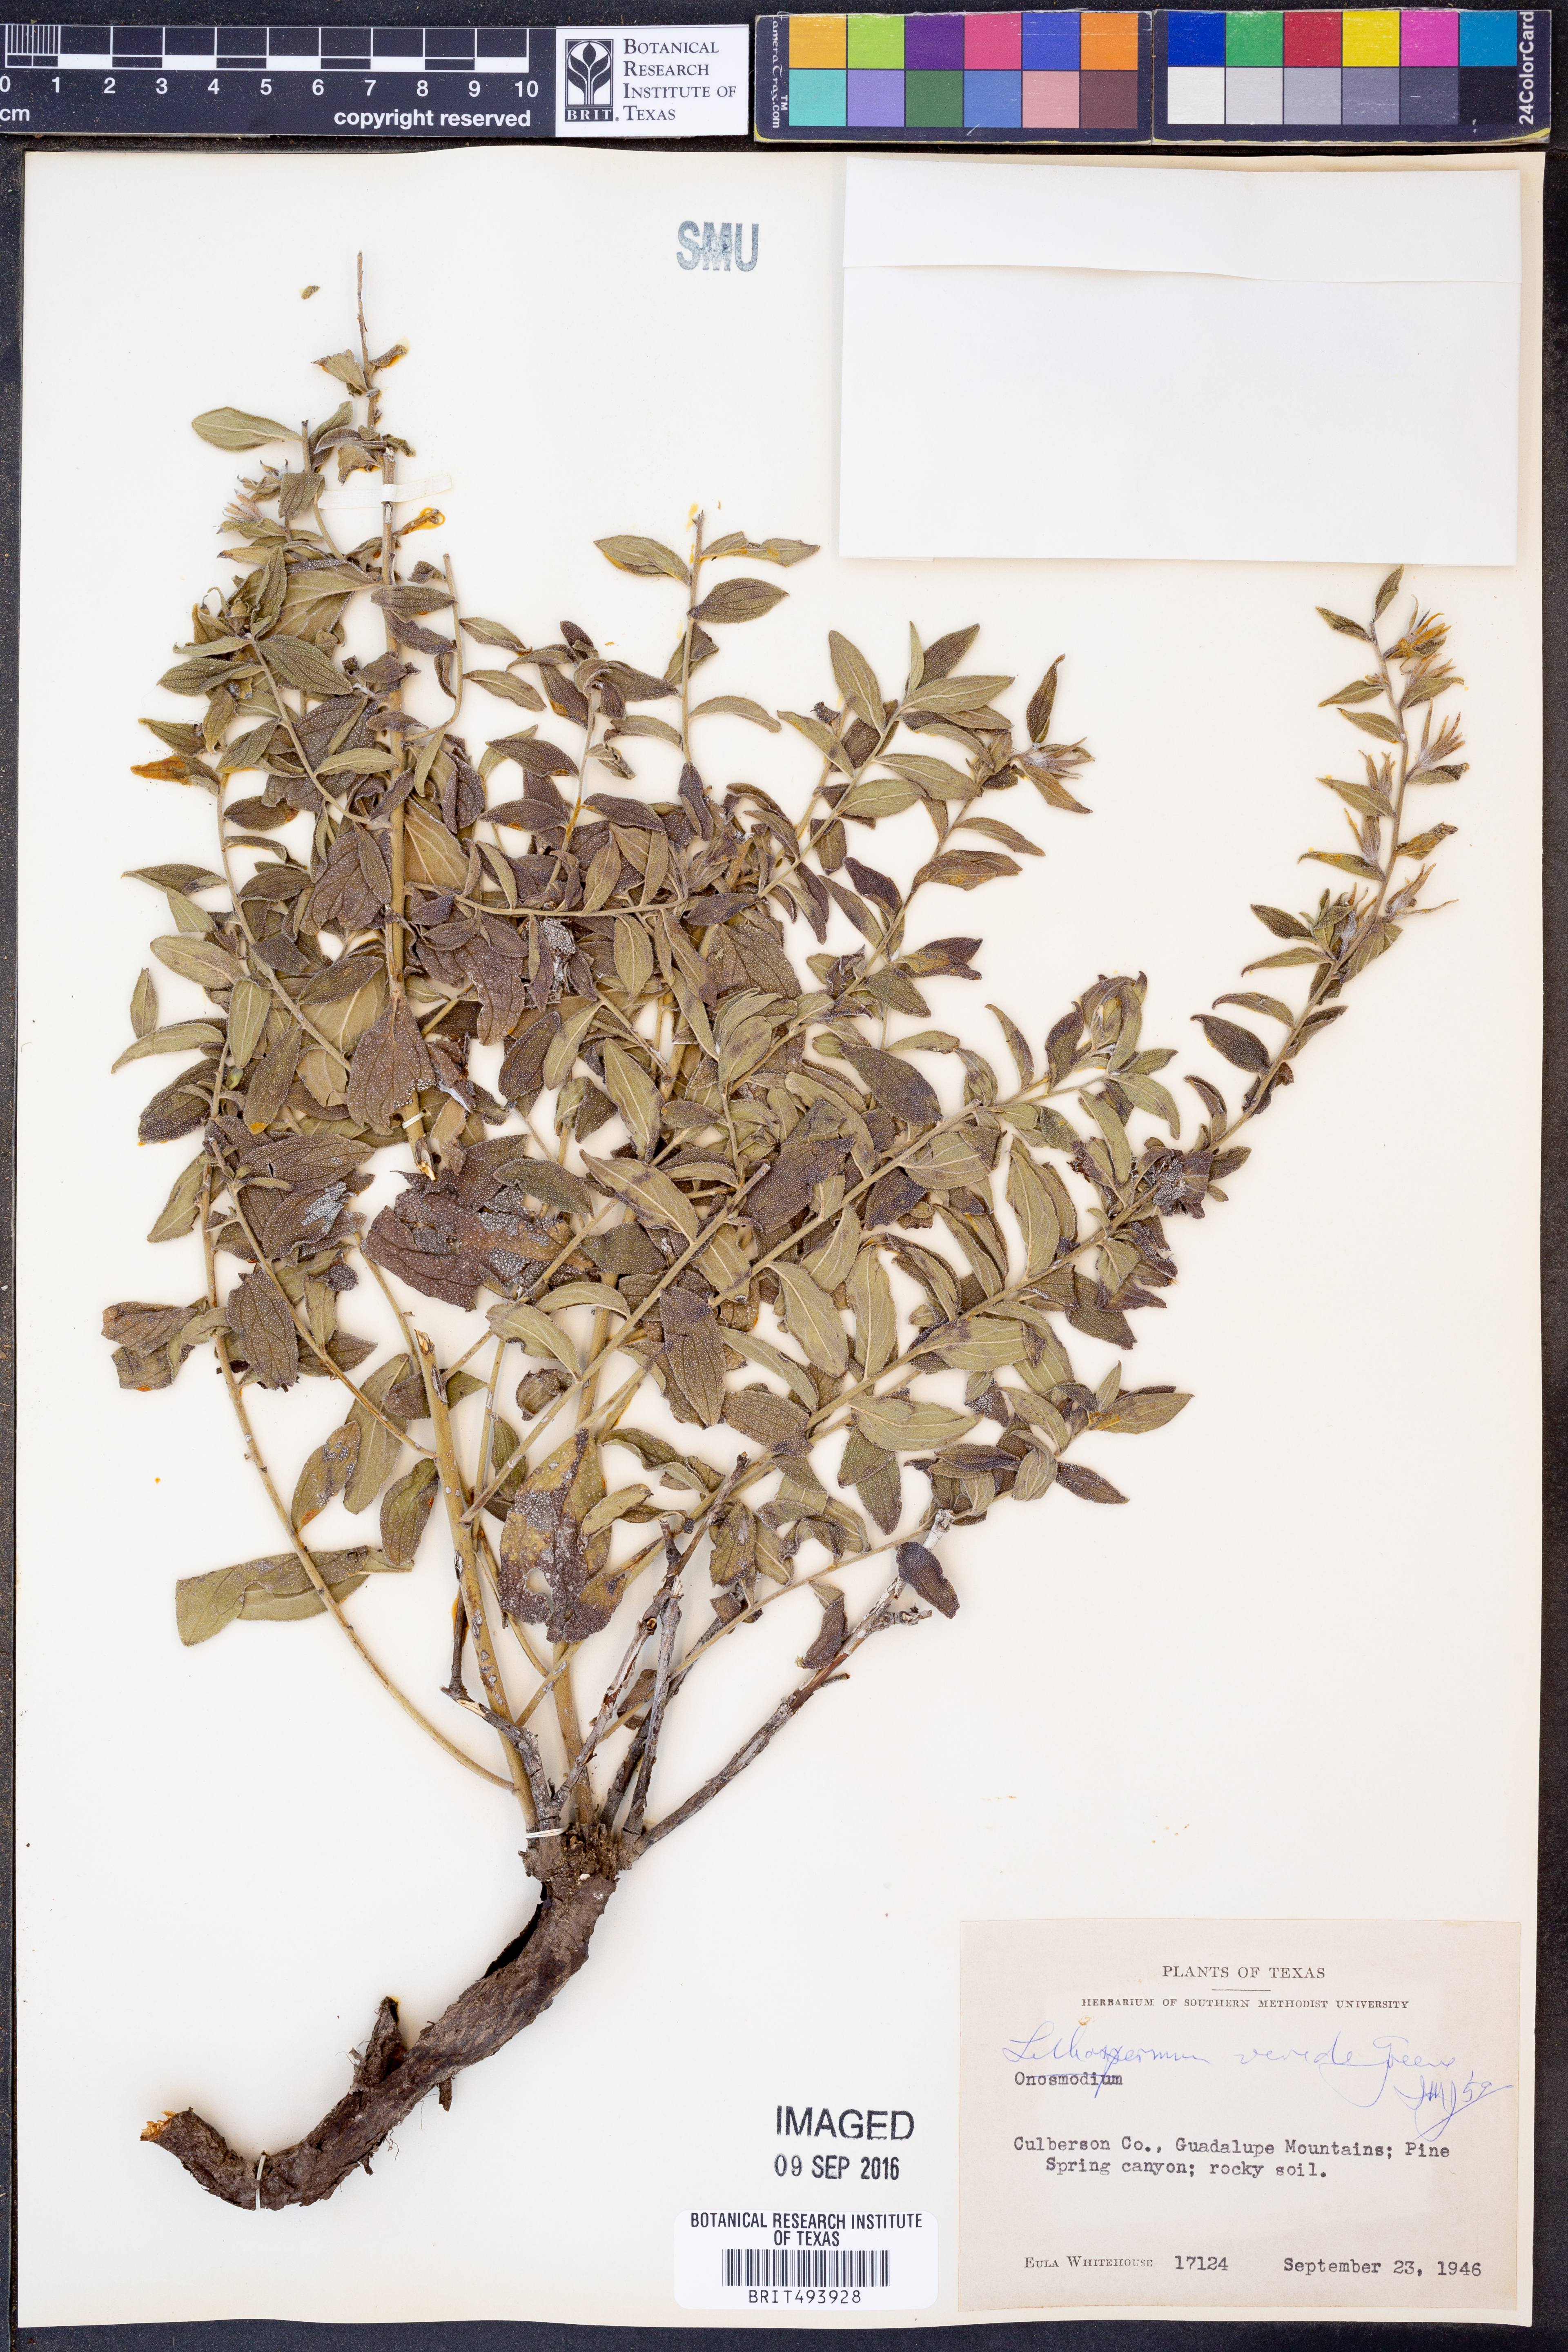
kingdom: Plantae
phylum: Tracheophyta
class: Magnoliopsida
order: Boraginales
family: Boraginaceae
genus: Lithospermum
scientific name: Lithospermum viride
